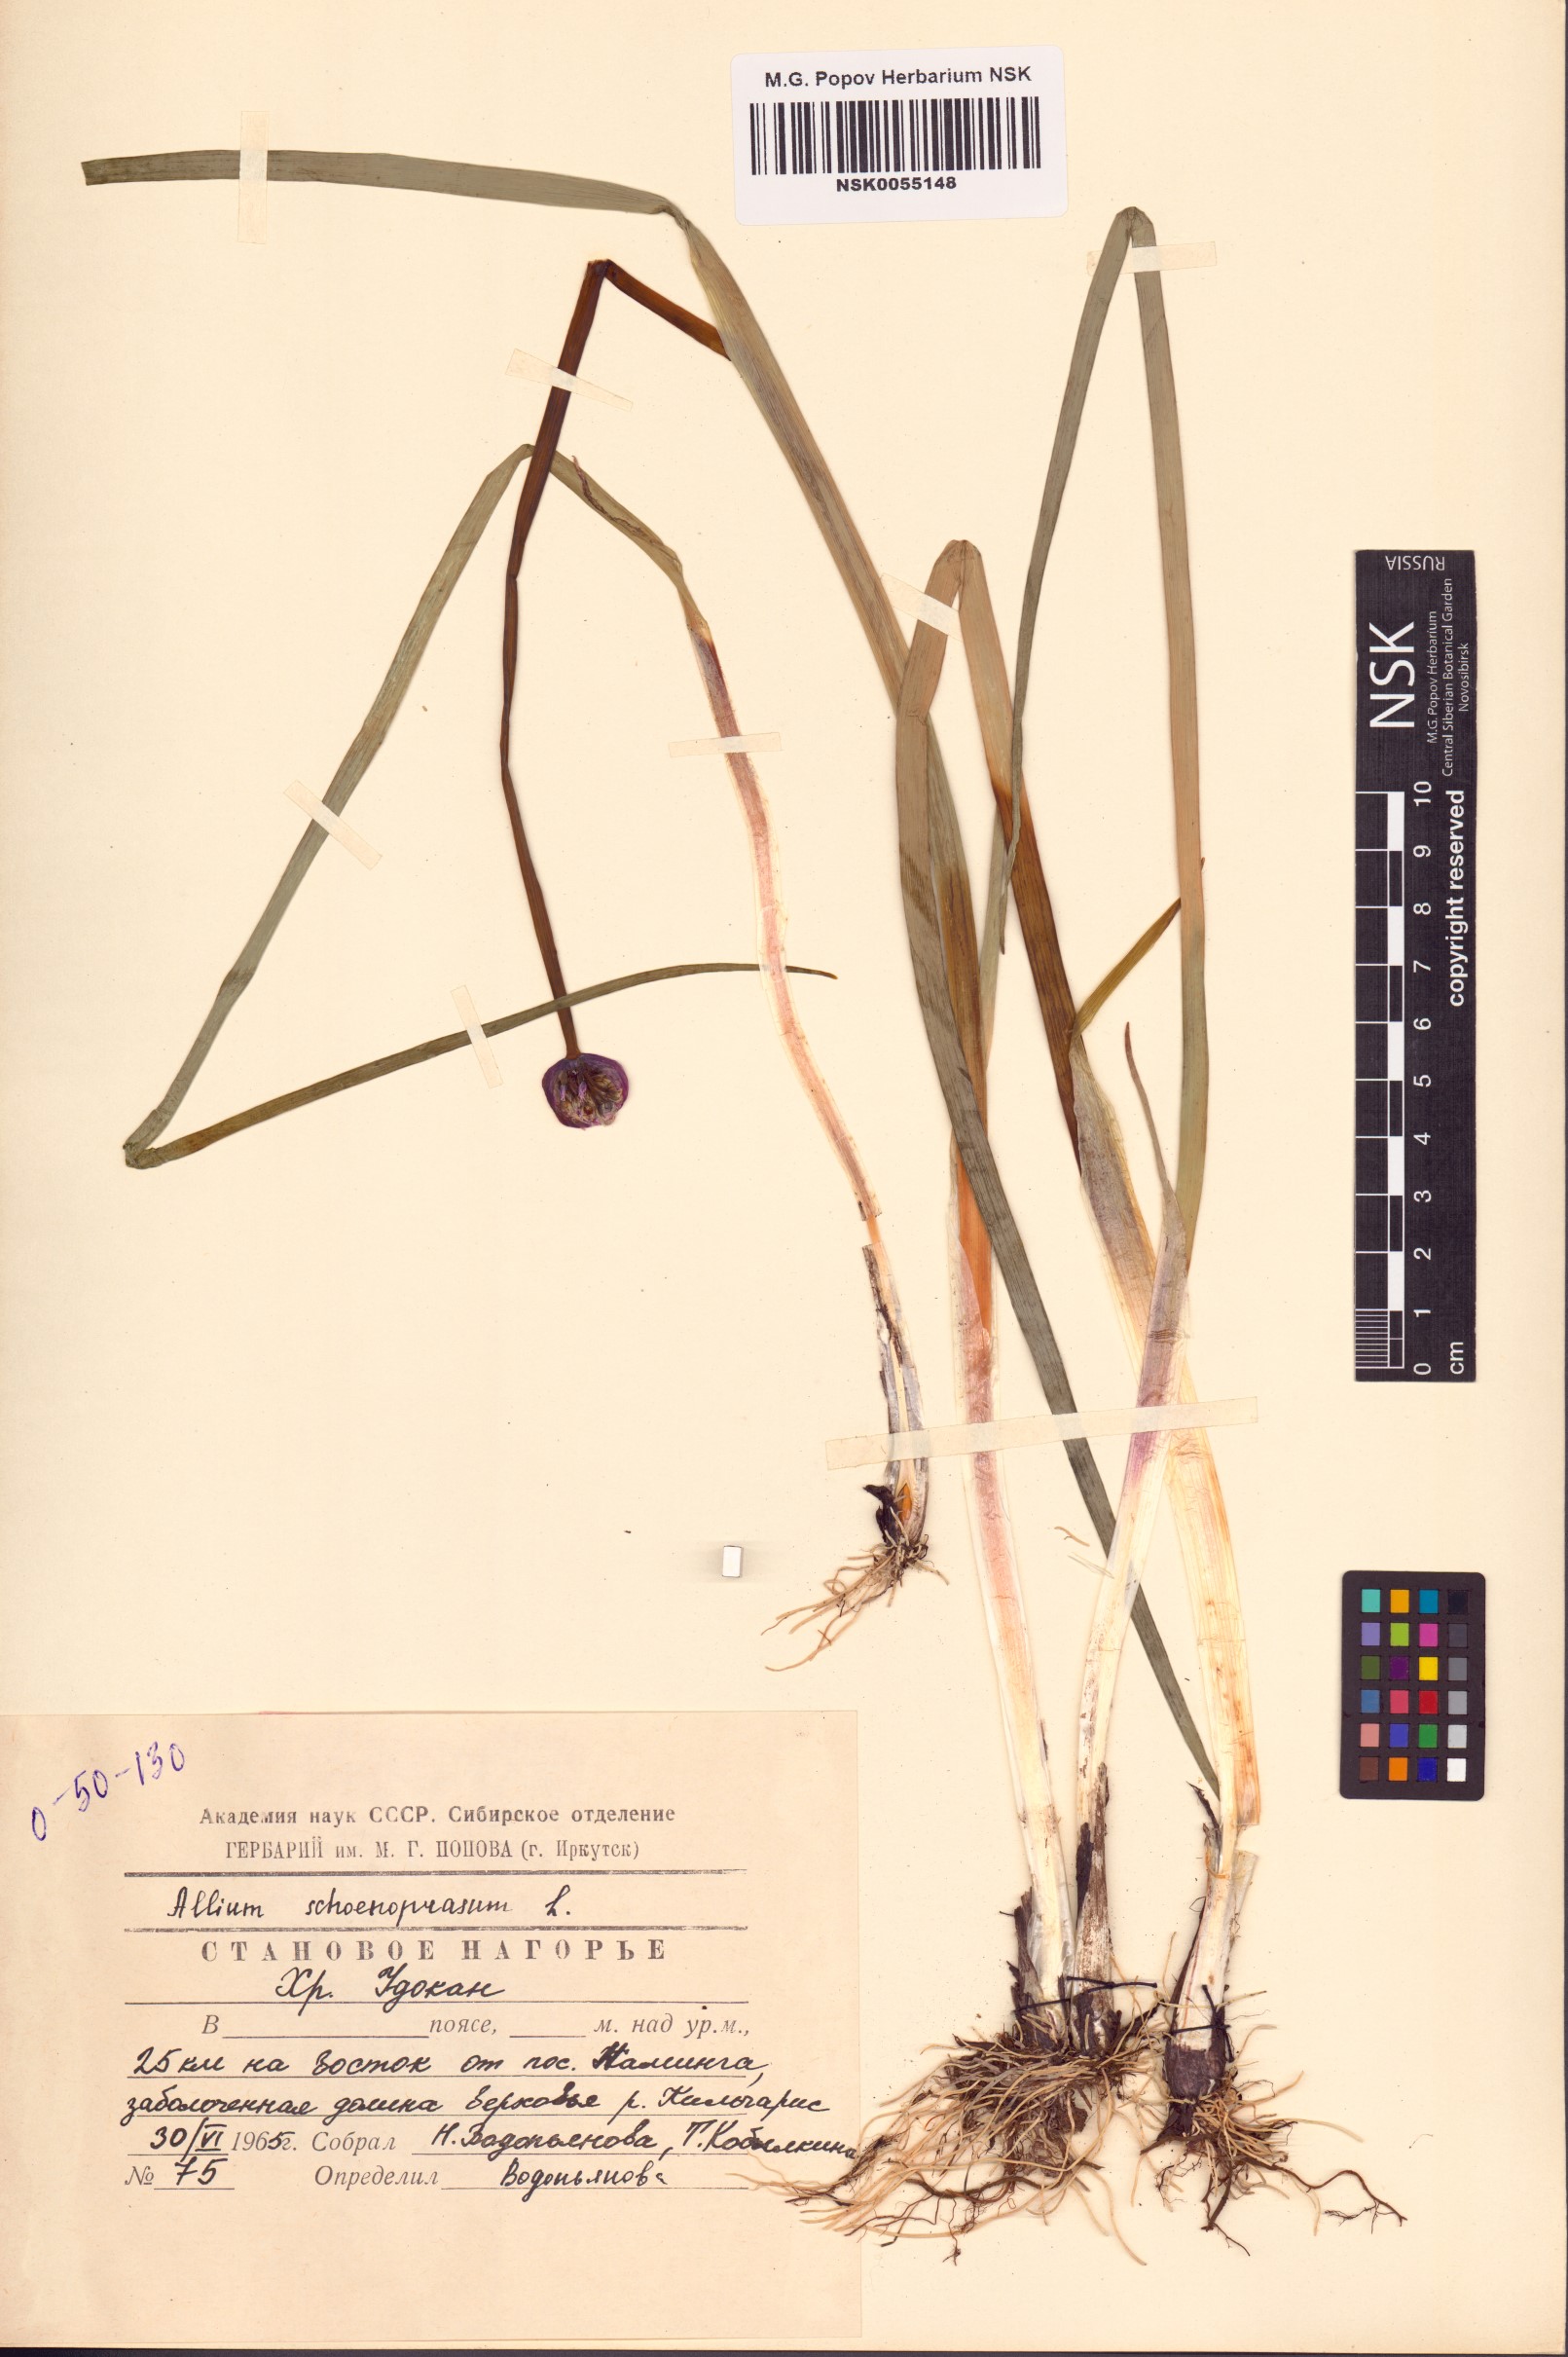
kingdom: Plantae
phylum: Tracheophyta
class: Liliopsida
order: Asparagales
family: Amaryllidaceae
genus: Allium
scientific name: Allium schoenoprasum
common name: Chives
